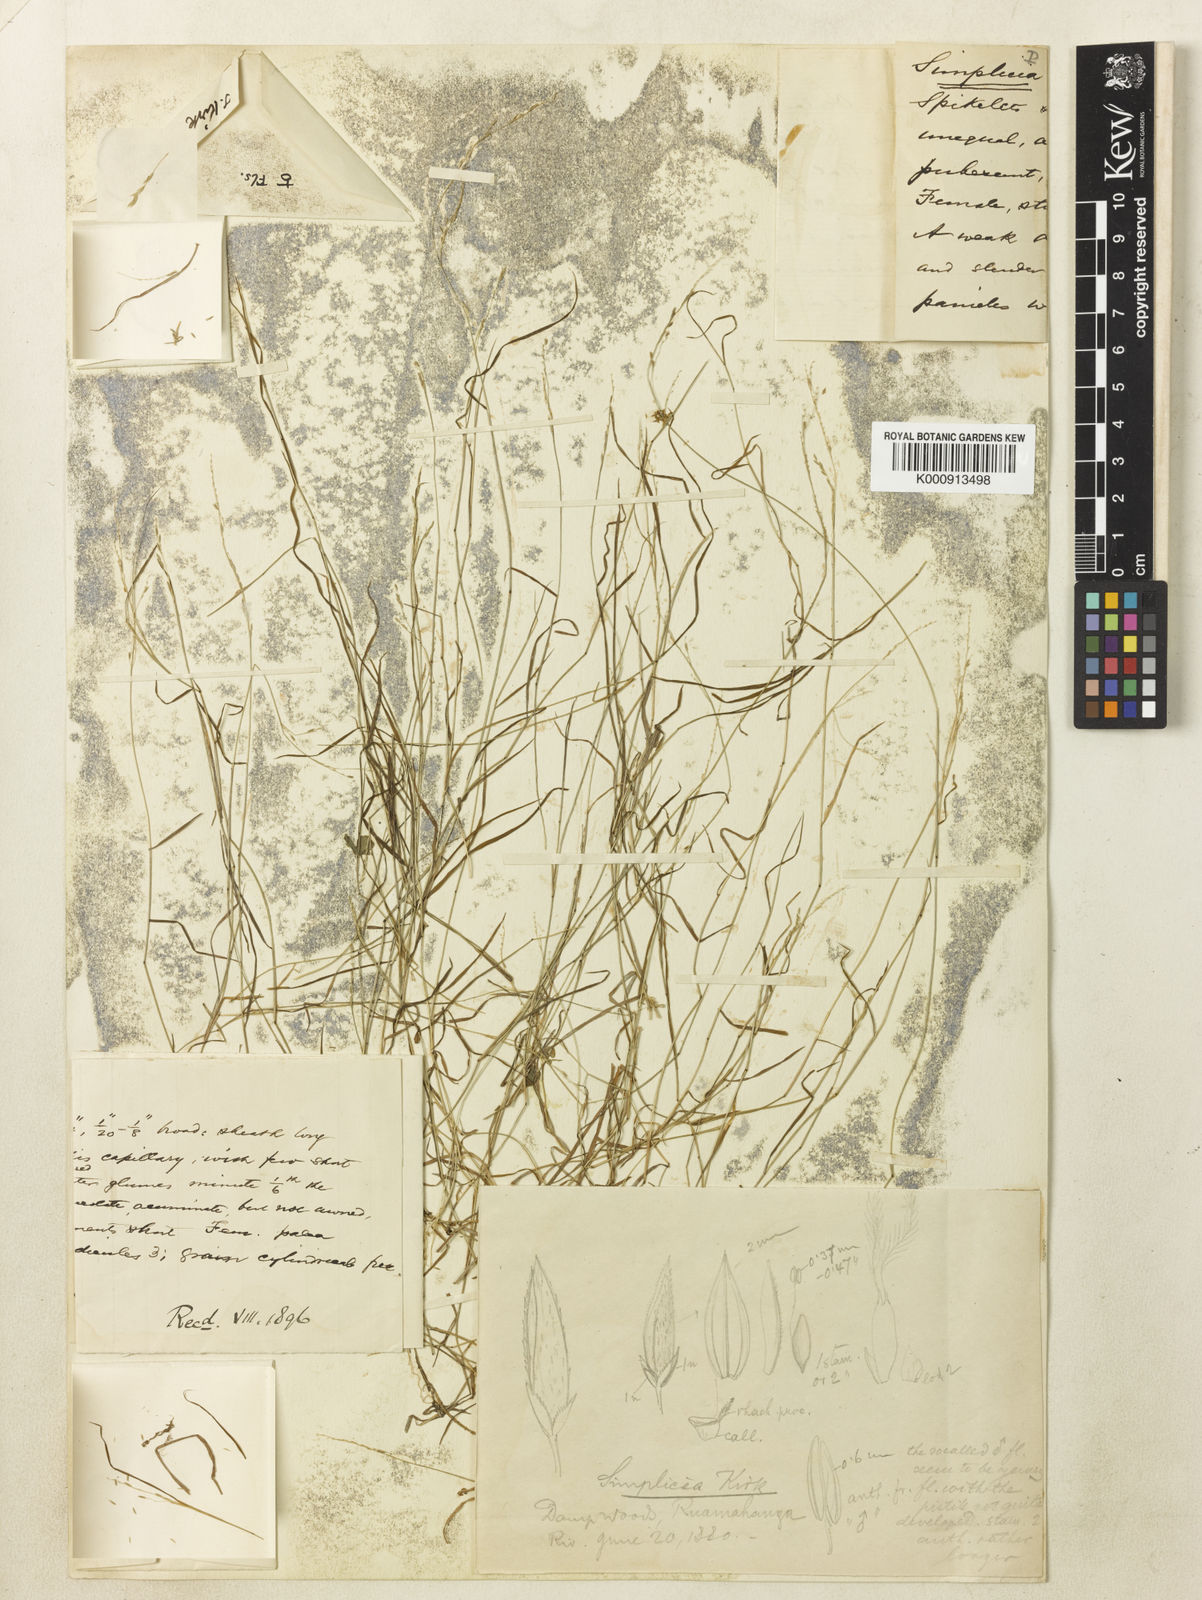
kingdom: Plantae
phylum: Tracheophyta
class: Liliopsida
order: Poales
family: Poaceae
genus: Simplicia
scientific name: Simplicia laxa
